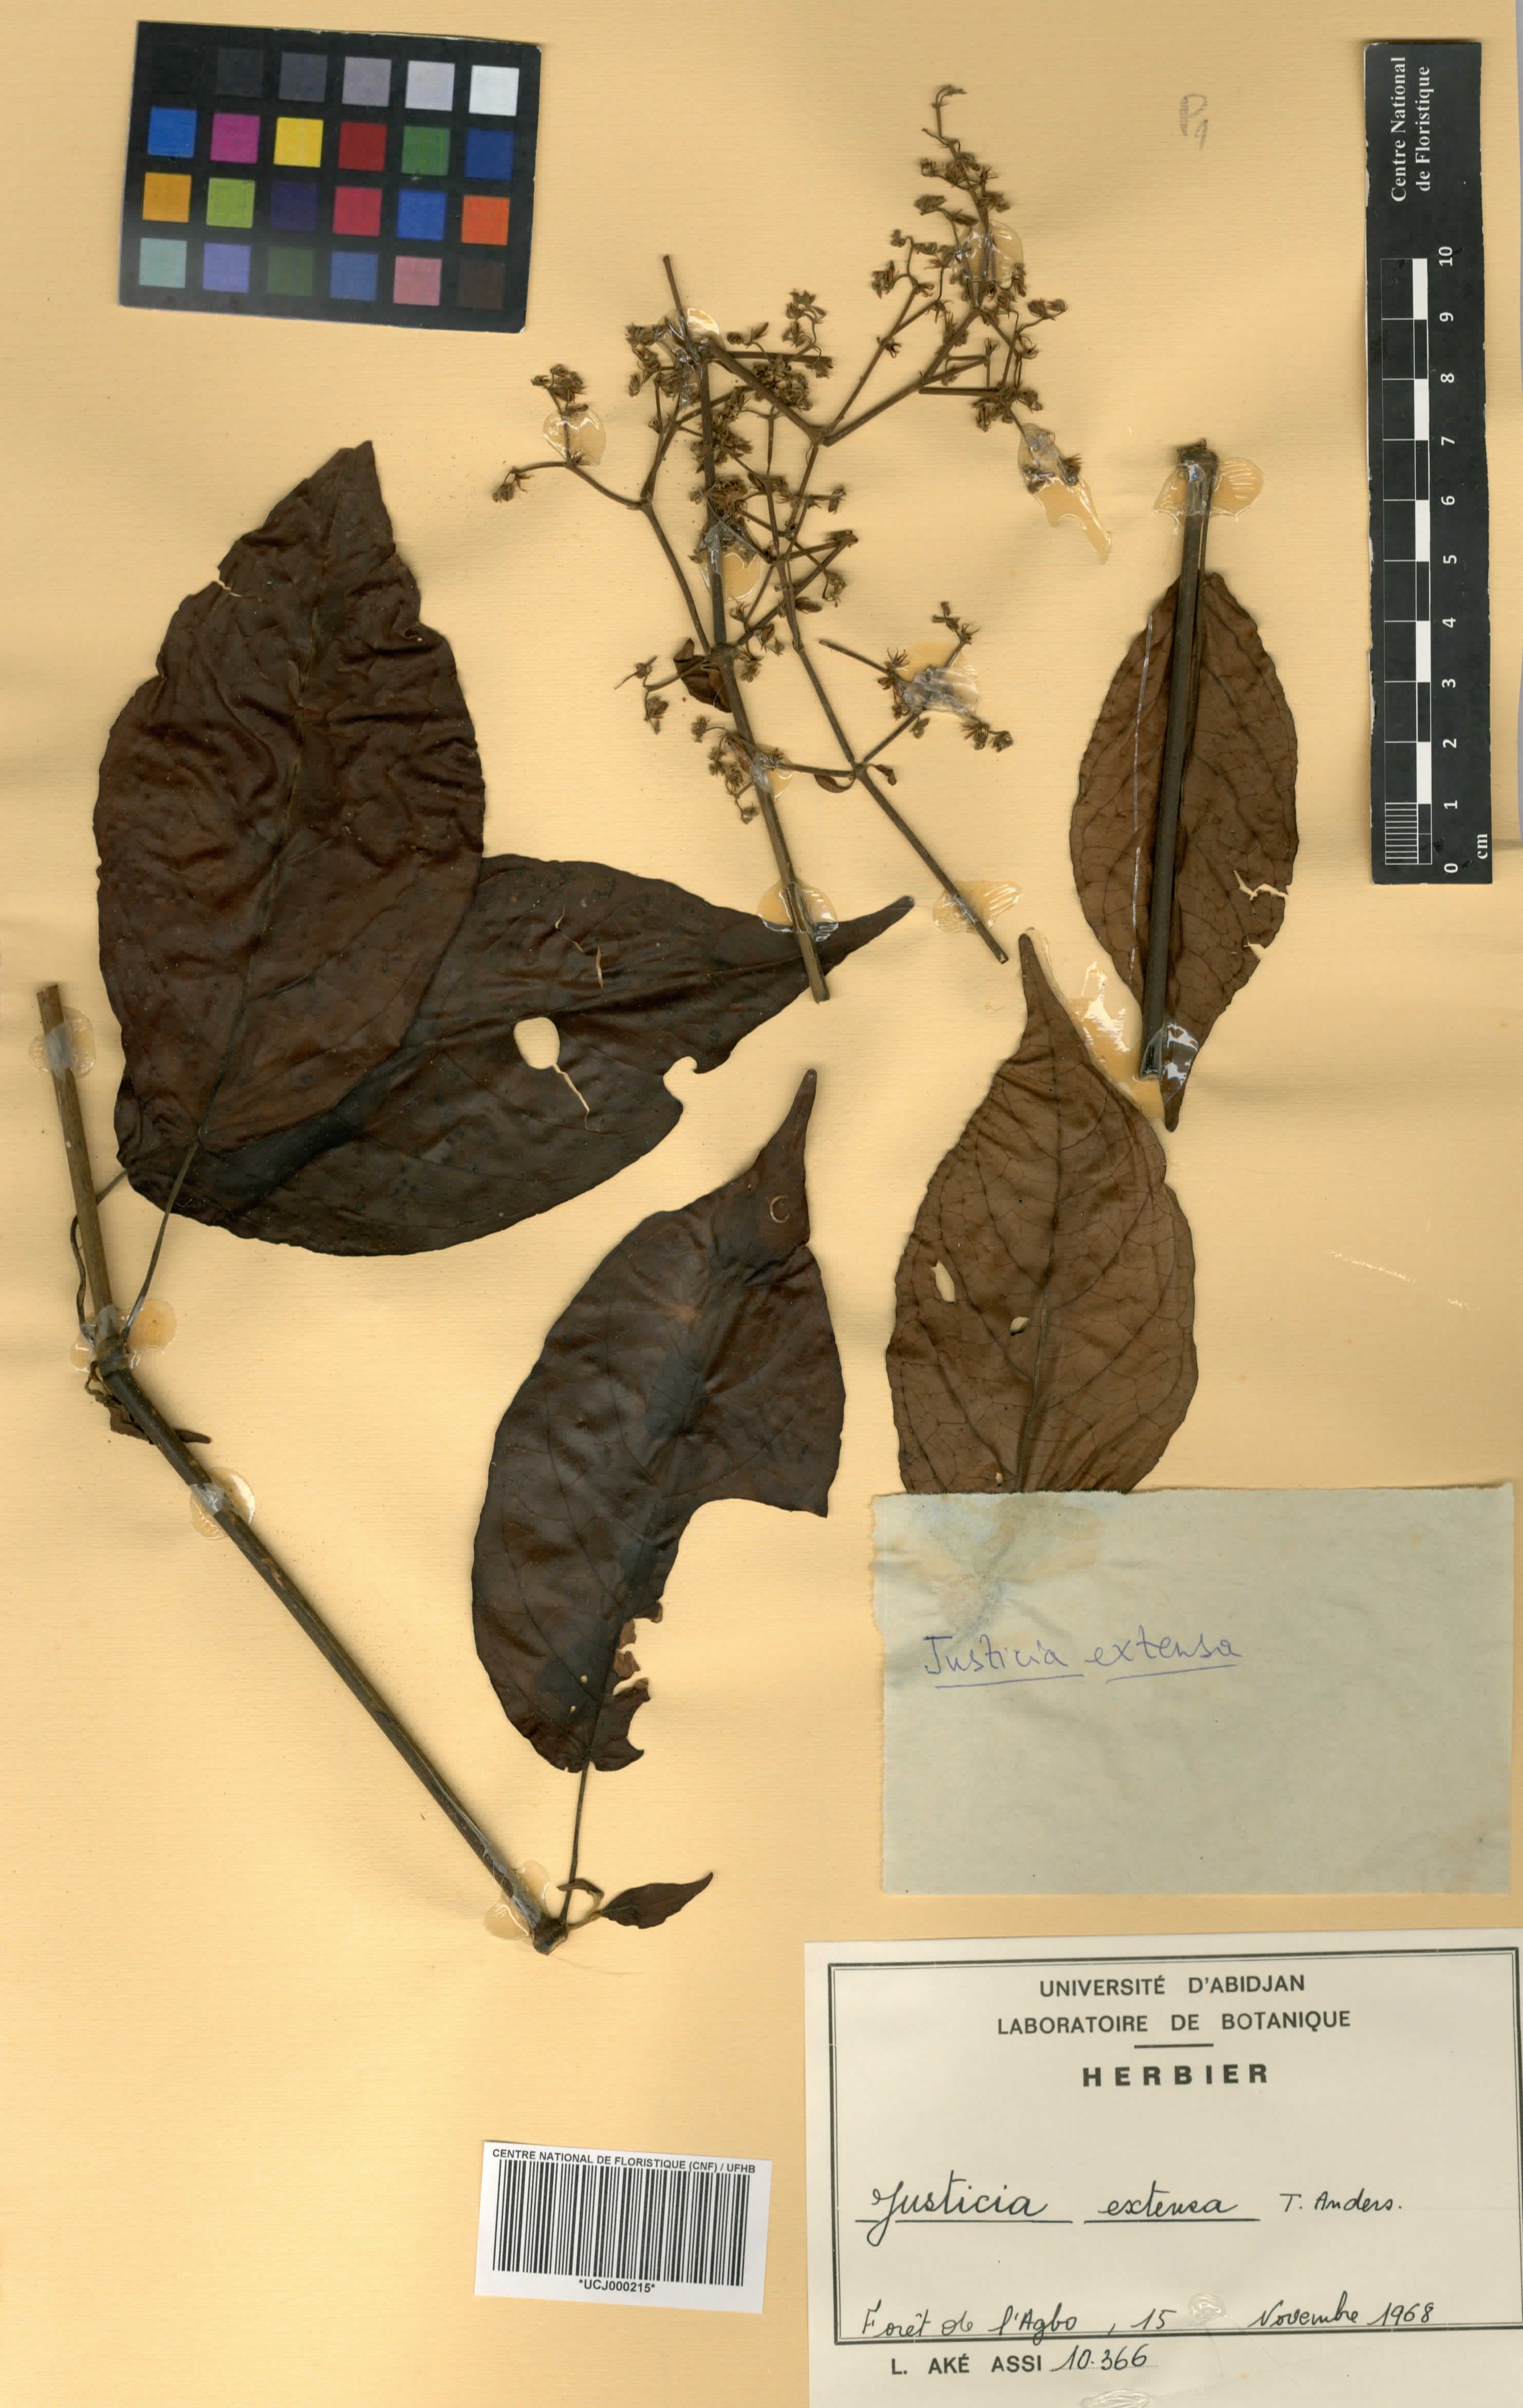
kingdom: Plantae
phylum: Tracheophyta
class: Magnoliopsida
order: Lamiales
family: Acanthaceae
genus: Justicia
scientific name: Justicia extensa
